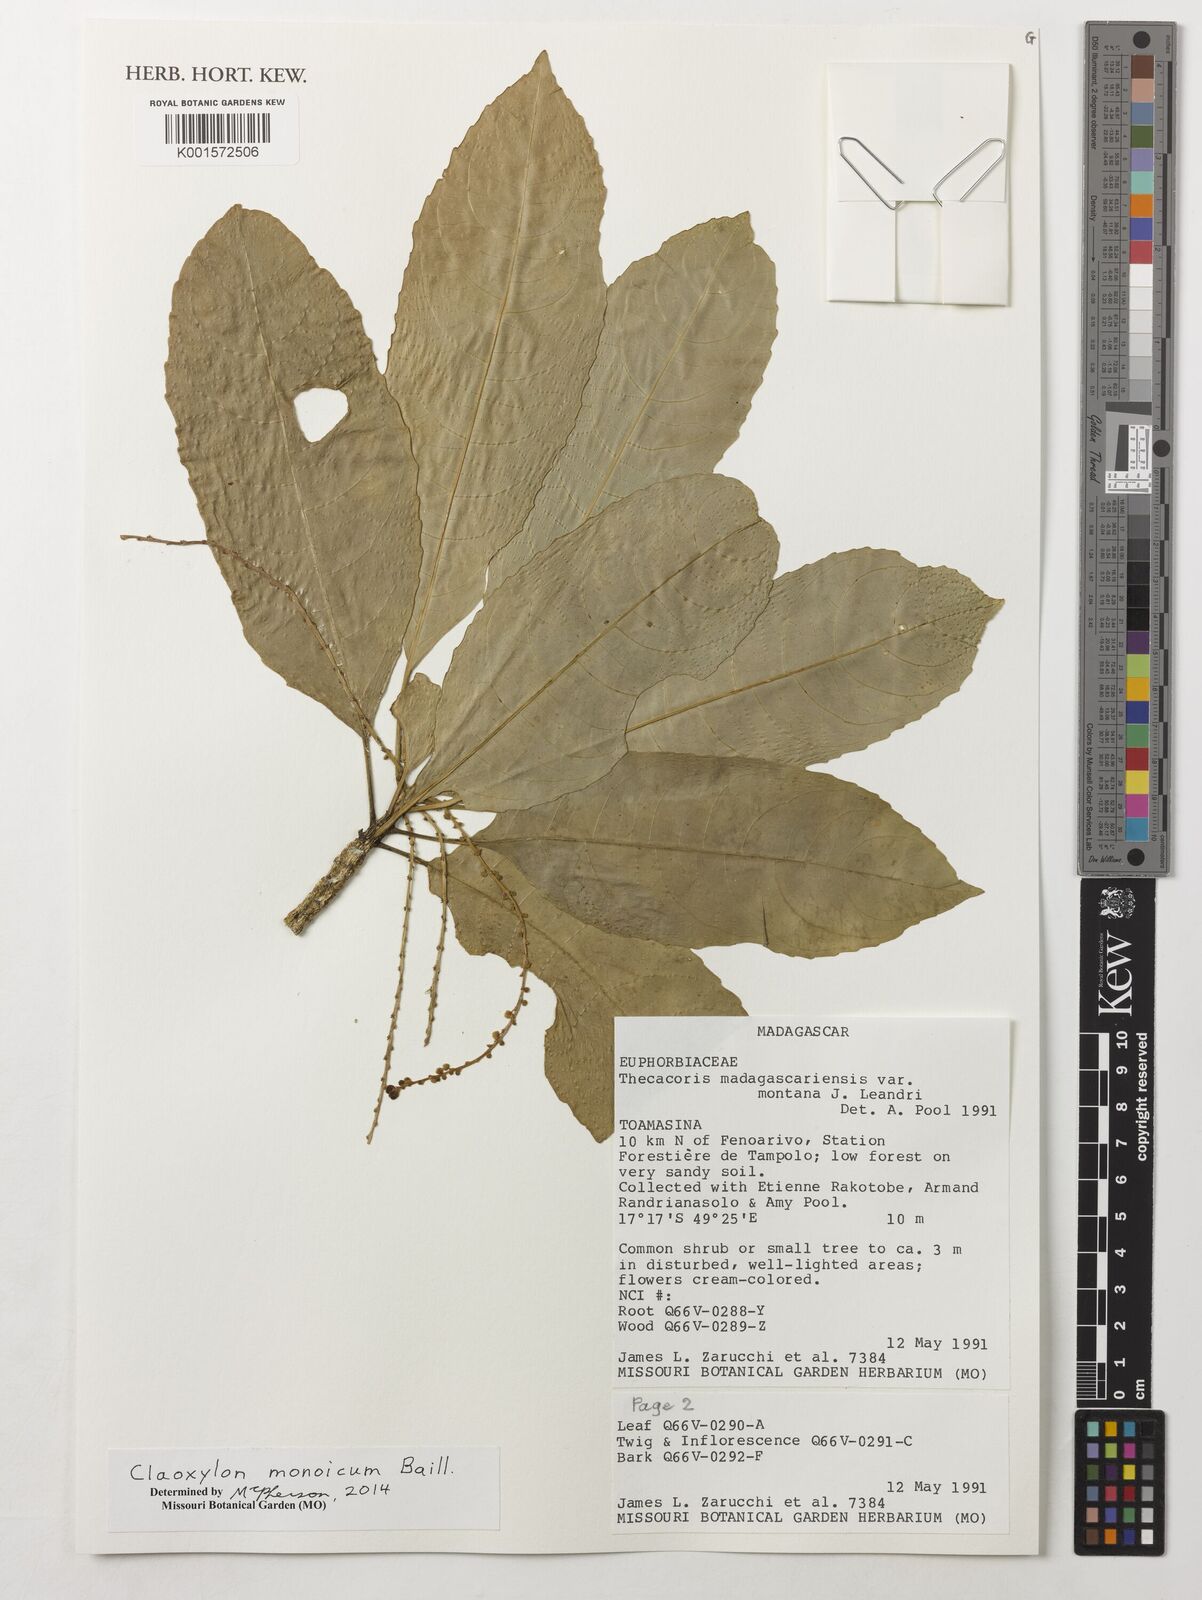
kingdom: Plantae
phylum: Tracheophyta
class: Magnoliopsida
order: Malpighiales
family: Euphorbiaceae
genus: Claoxylon
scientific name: Claoxylon monoicum
